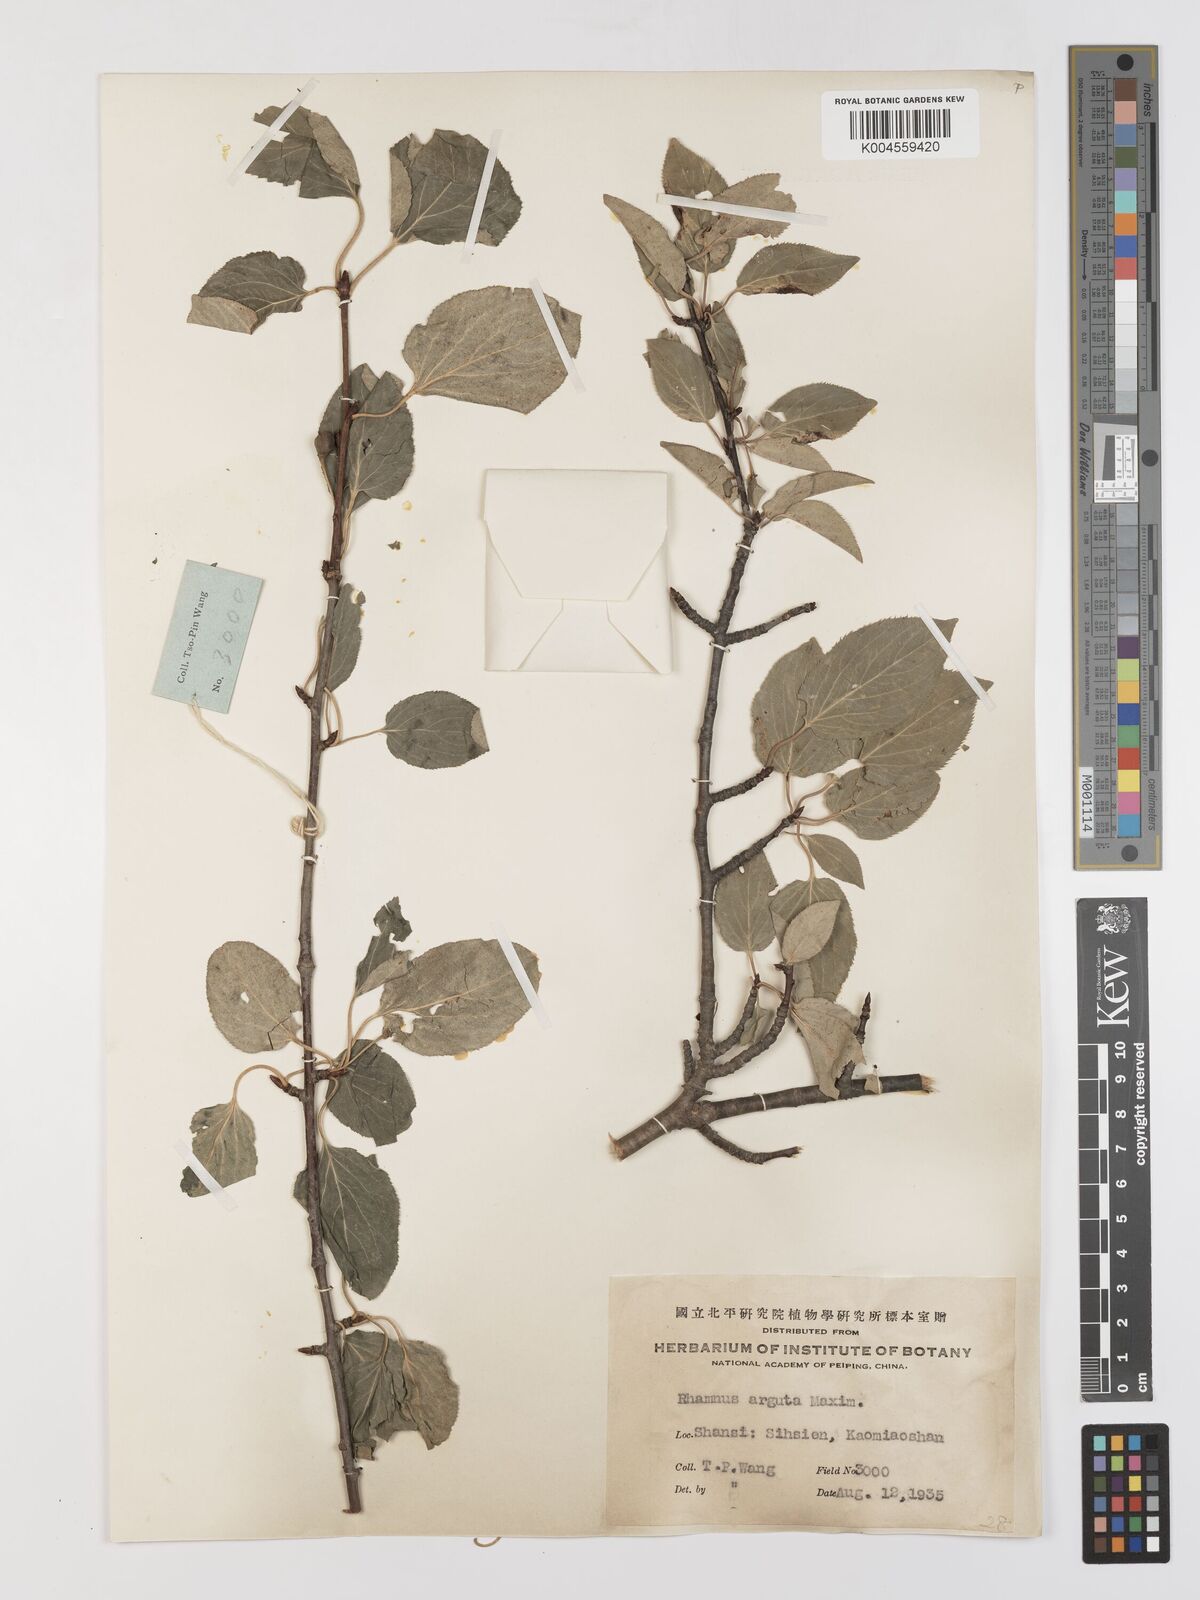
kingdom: Plantae
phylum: Tracheophyta
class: Magnoliopsida
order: Rosales
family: Rhamnaceae
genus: Rhamnus
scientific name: Rhamnus arguta
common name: Sharp-tooth buckthorn
